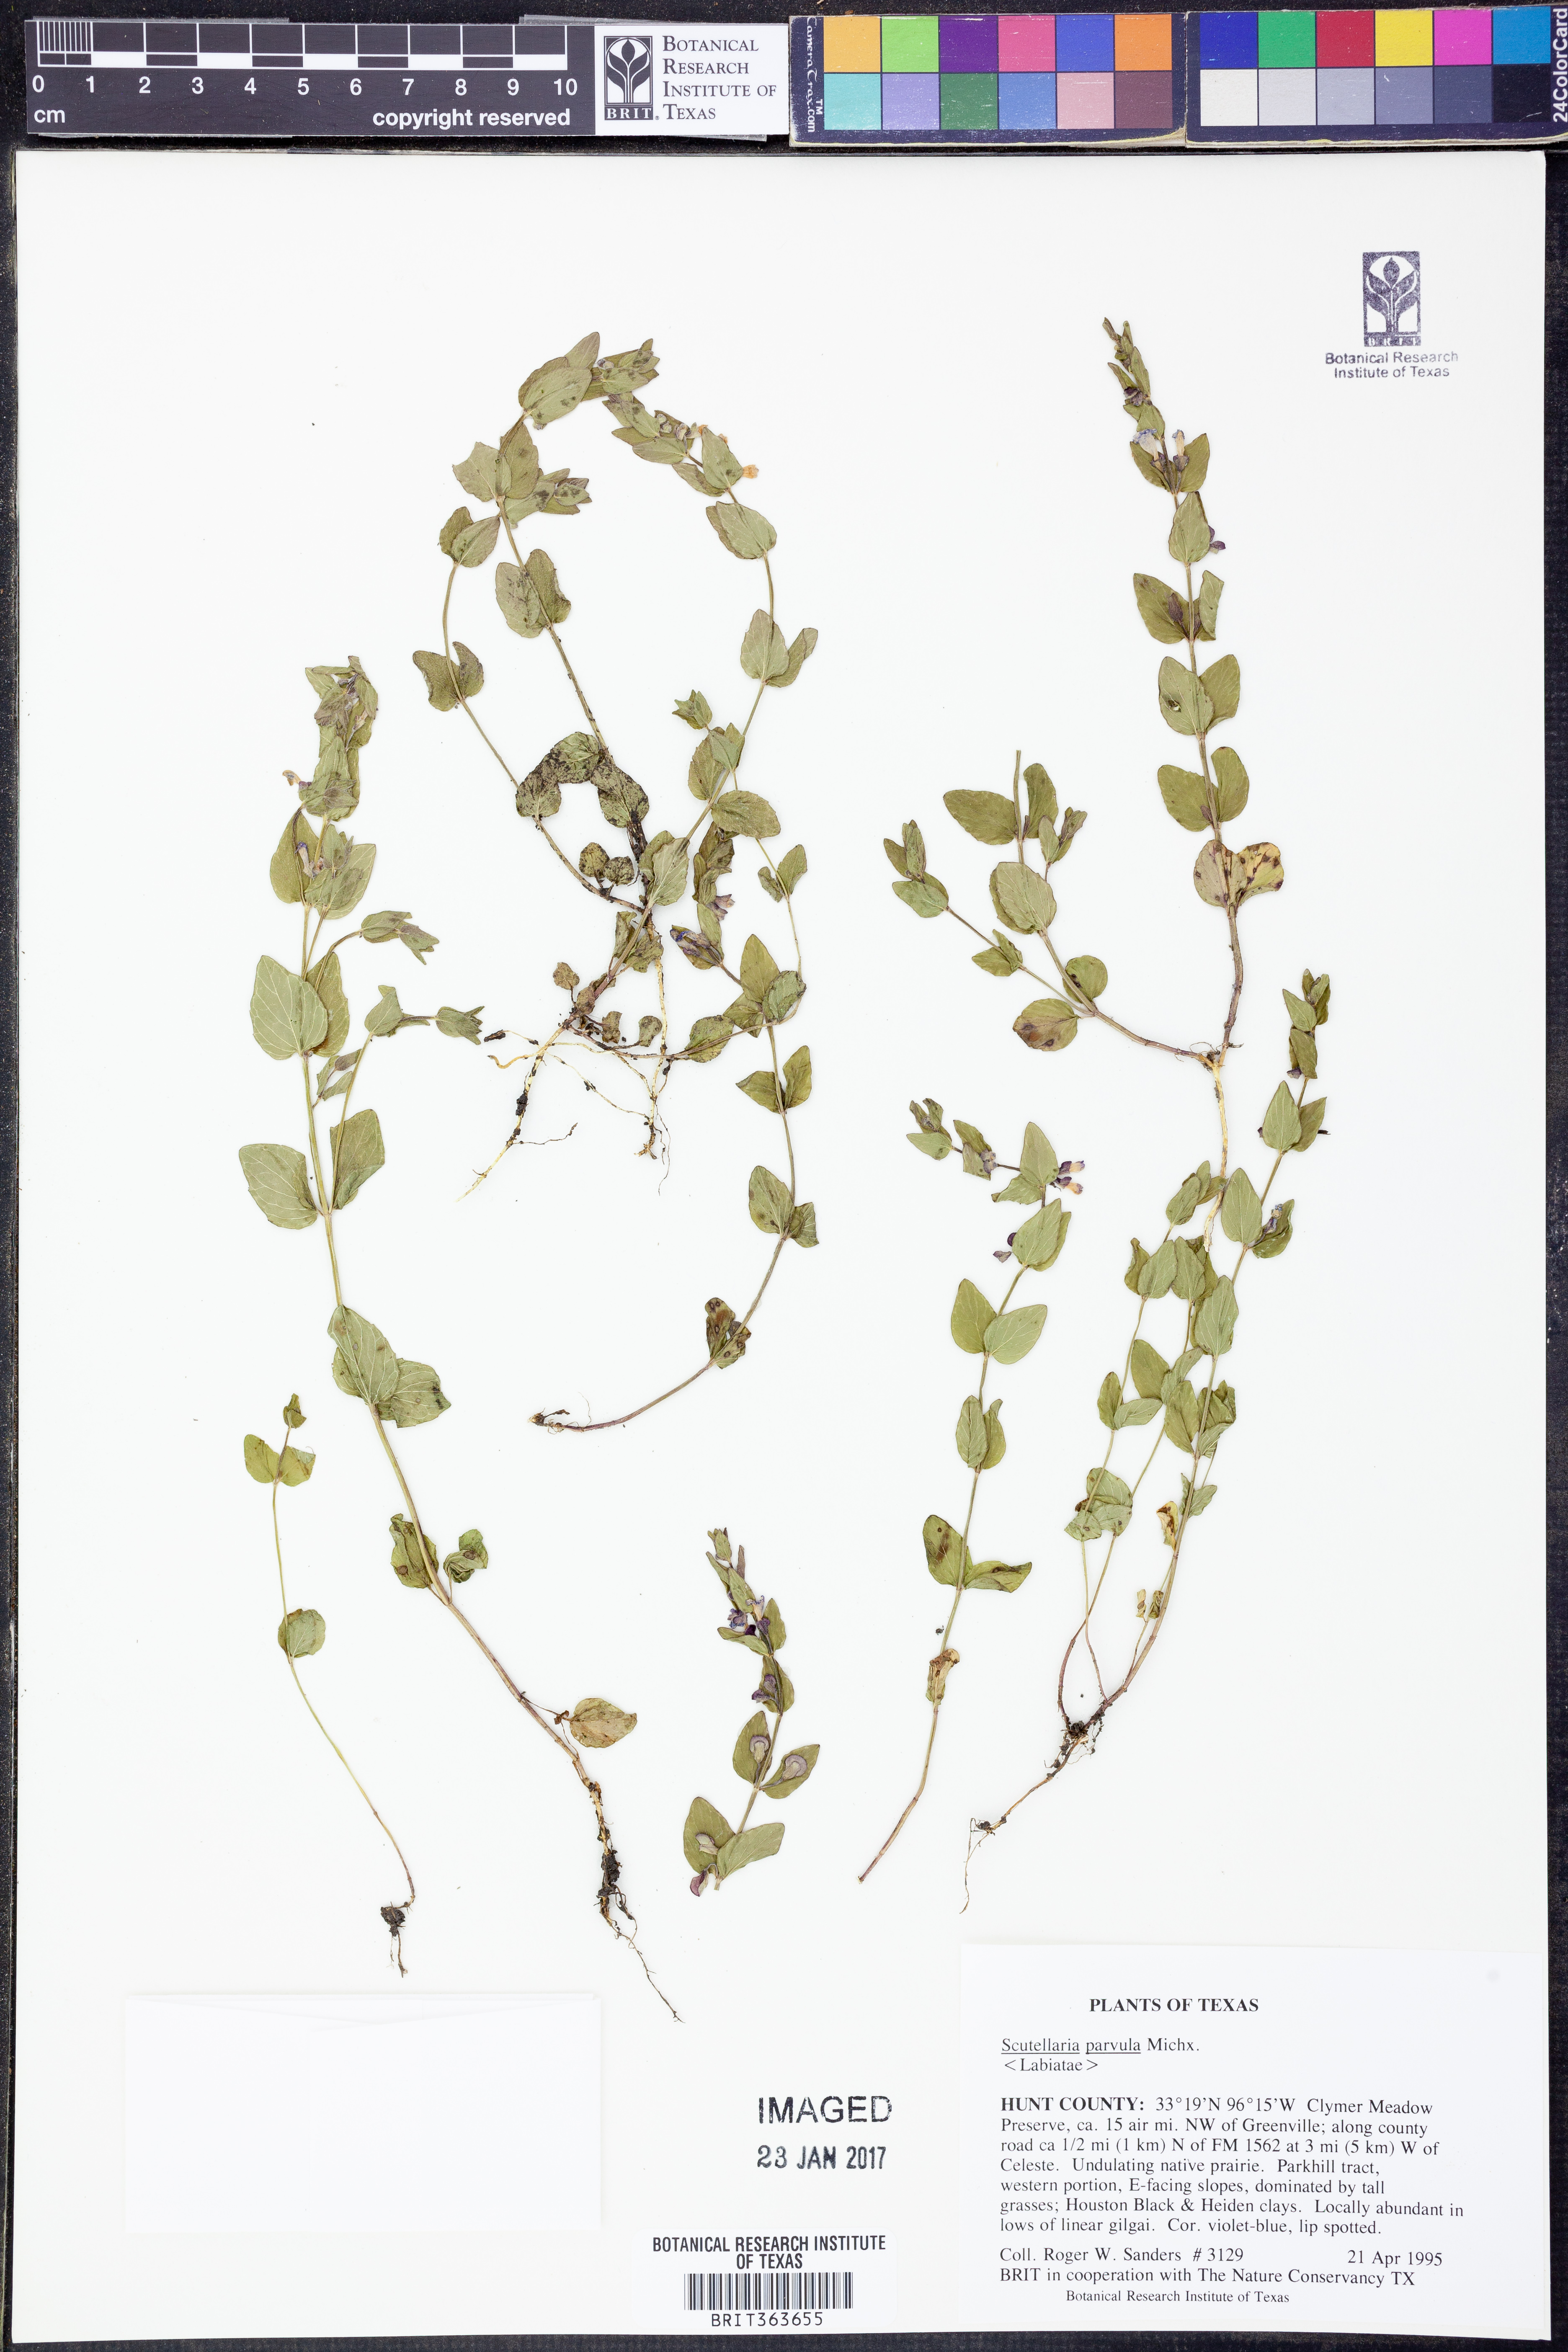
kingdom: Plantae
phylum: Tracheophyta
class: Magnoliopsida
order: Lamiales
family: Lamiaceae
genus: Scutellaria
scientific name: Scutellaria parvula
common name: Little scullcap
